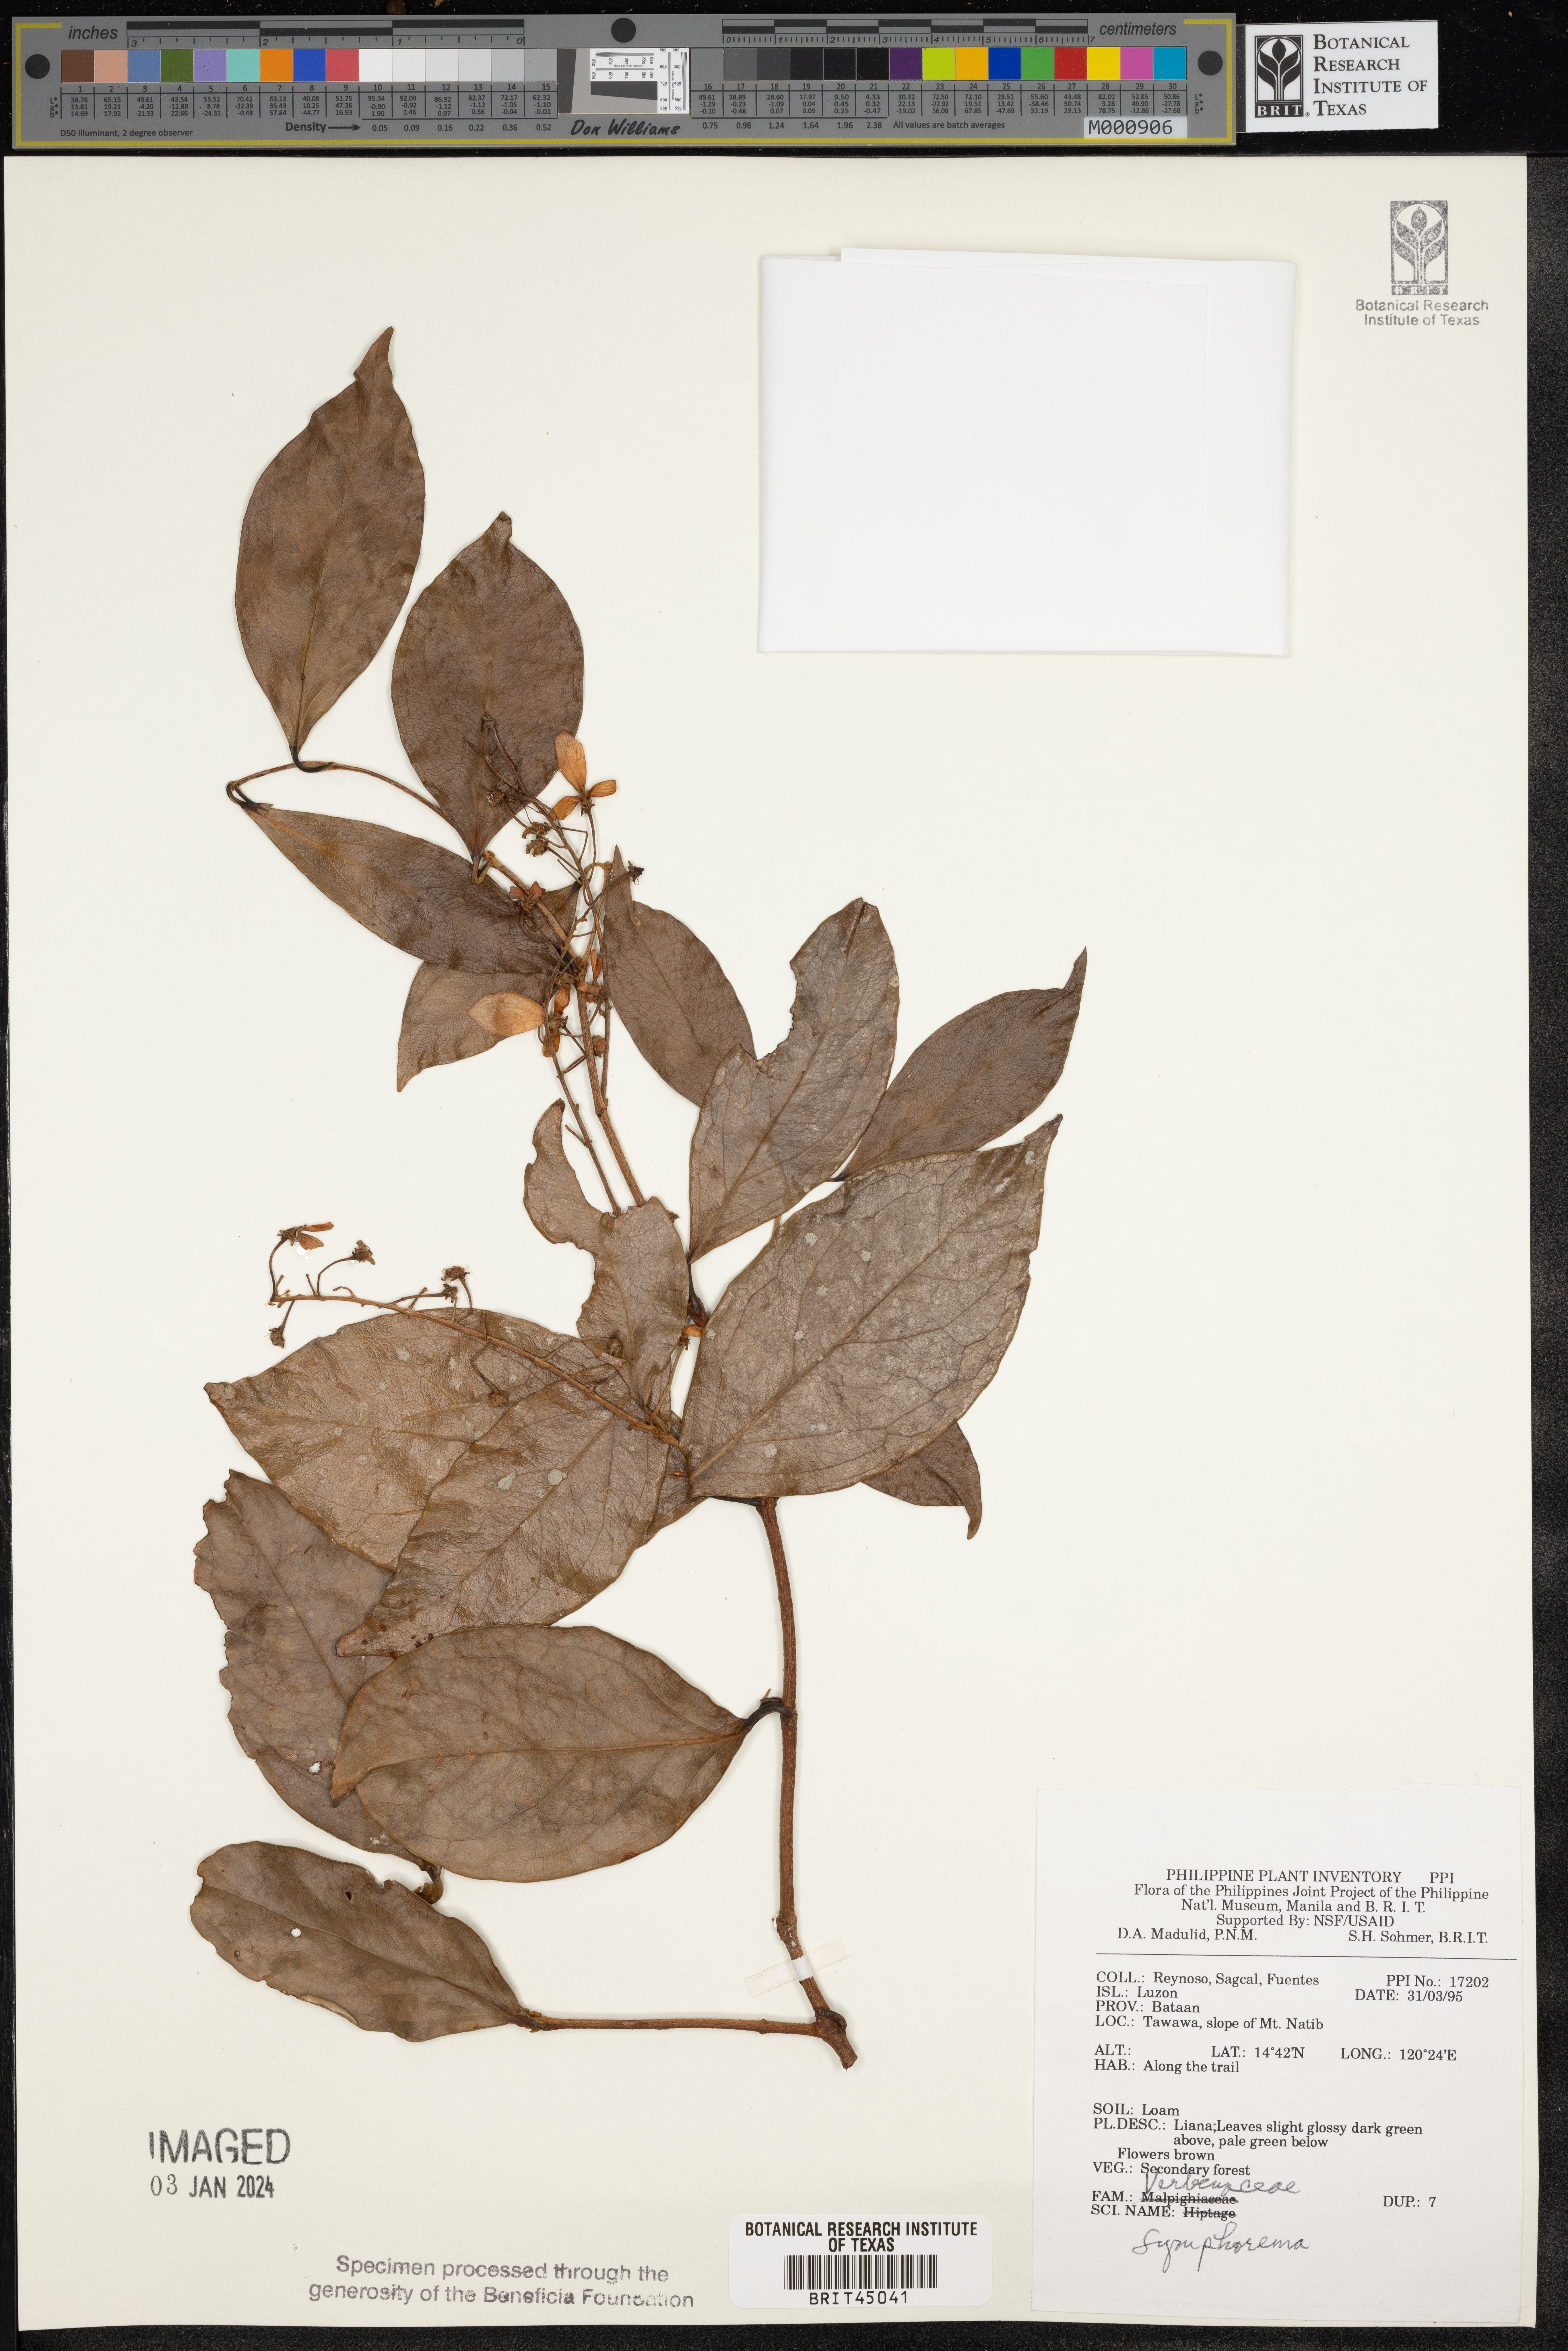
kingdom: Plantae
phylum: Tracheophyta
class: Magnoliopsida
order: Lamiales
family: Lamiaceae
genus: Symphorema
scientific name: Symphorema
